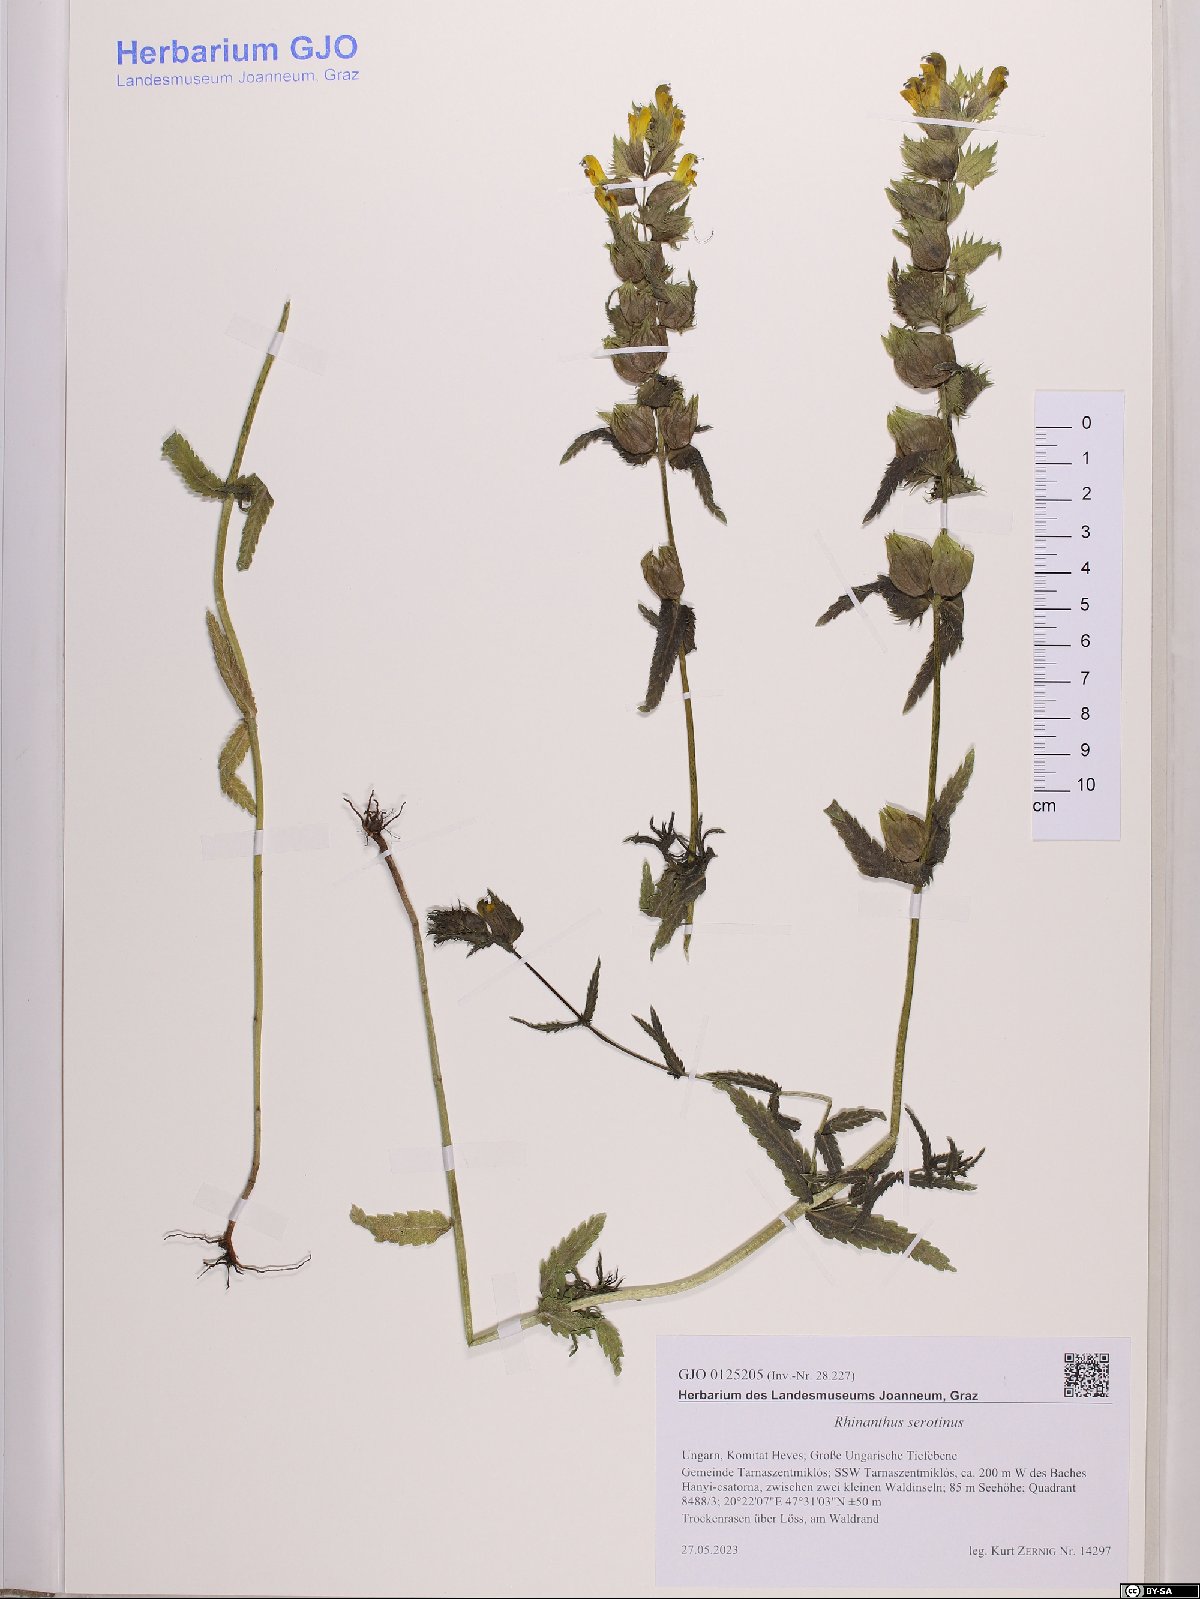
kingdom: Plantae
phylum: Tracheophyta
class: Magnoliopsida
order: Lamiales
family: Orobanchaceae
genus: Rhinanthus
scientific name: Rhinanthus serotinus
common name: Late-flowering yellow rattle
